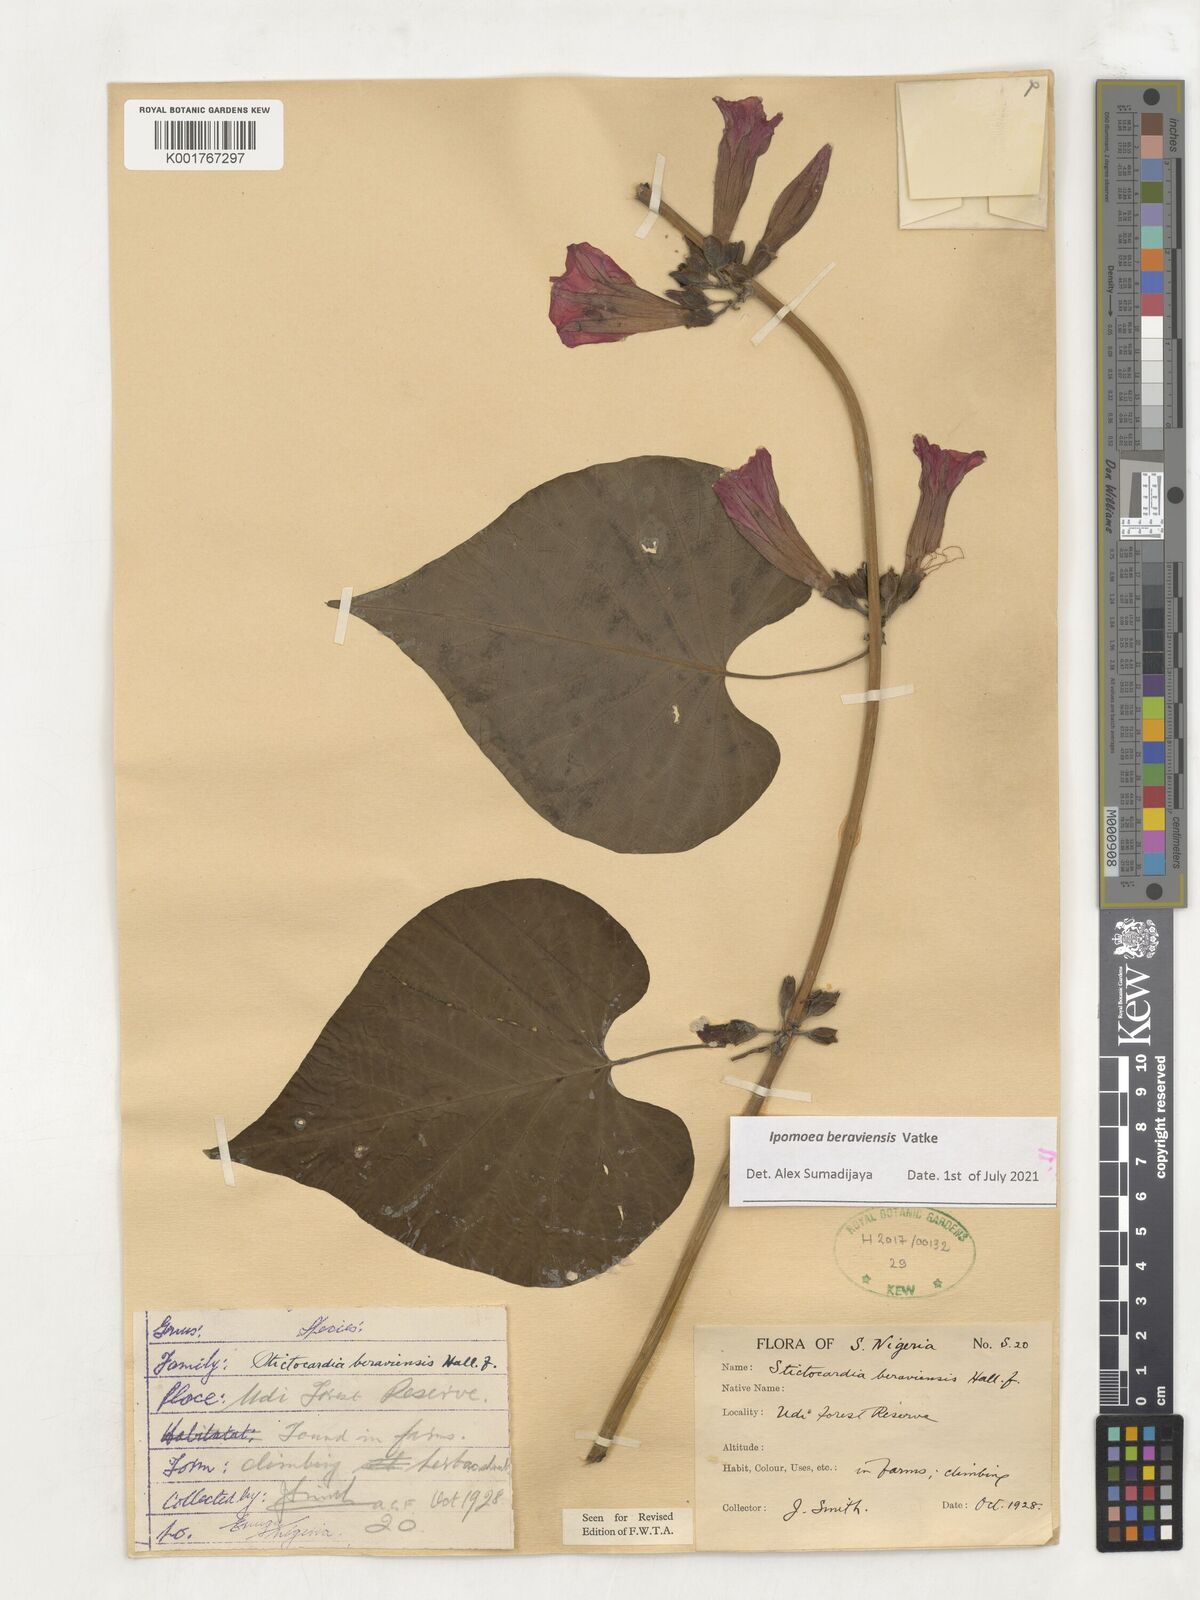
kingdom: Plantae
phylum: Tracheophyta
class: Magnoliopsida
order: Solanales
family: Convolvulaceae
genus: Stictocardia
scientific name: Stictocardia beraviensis
